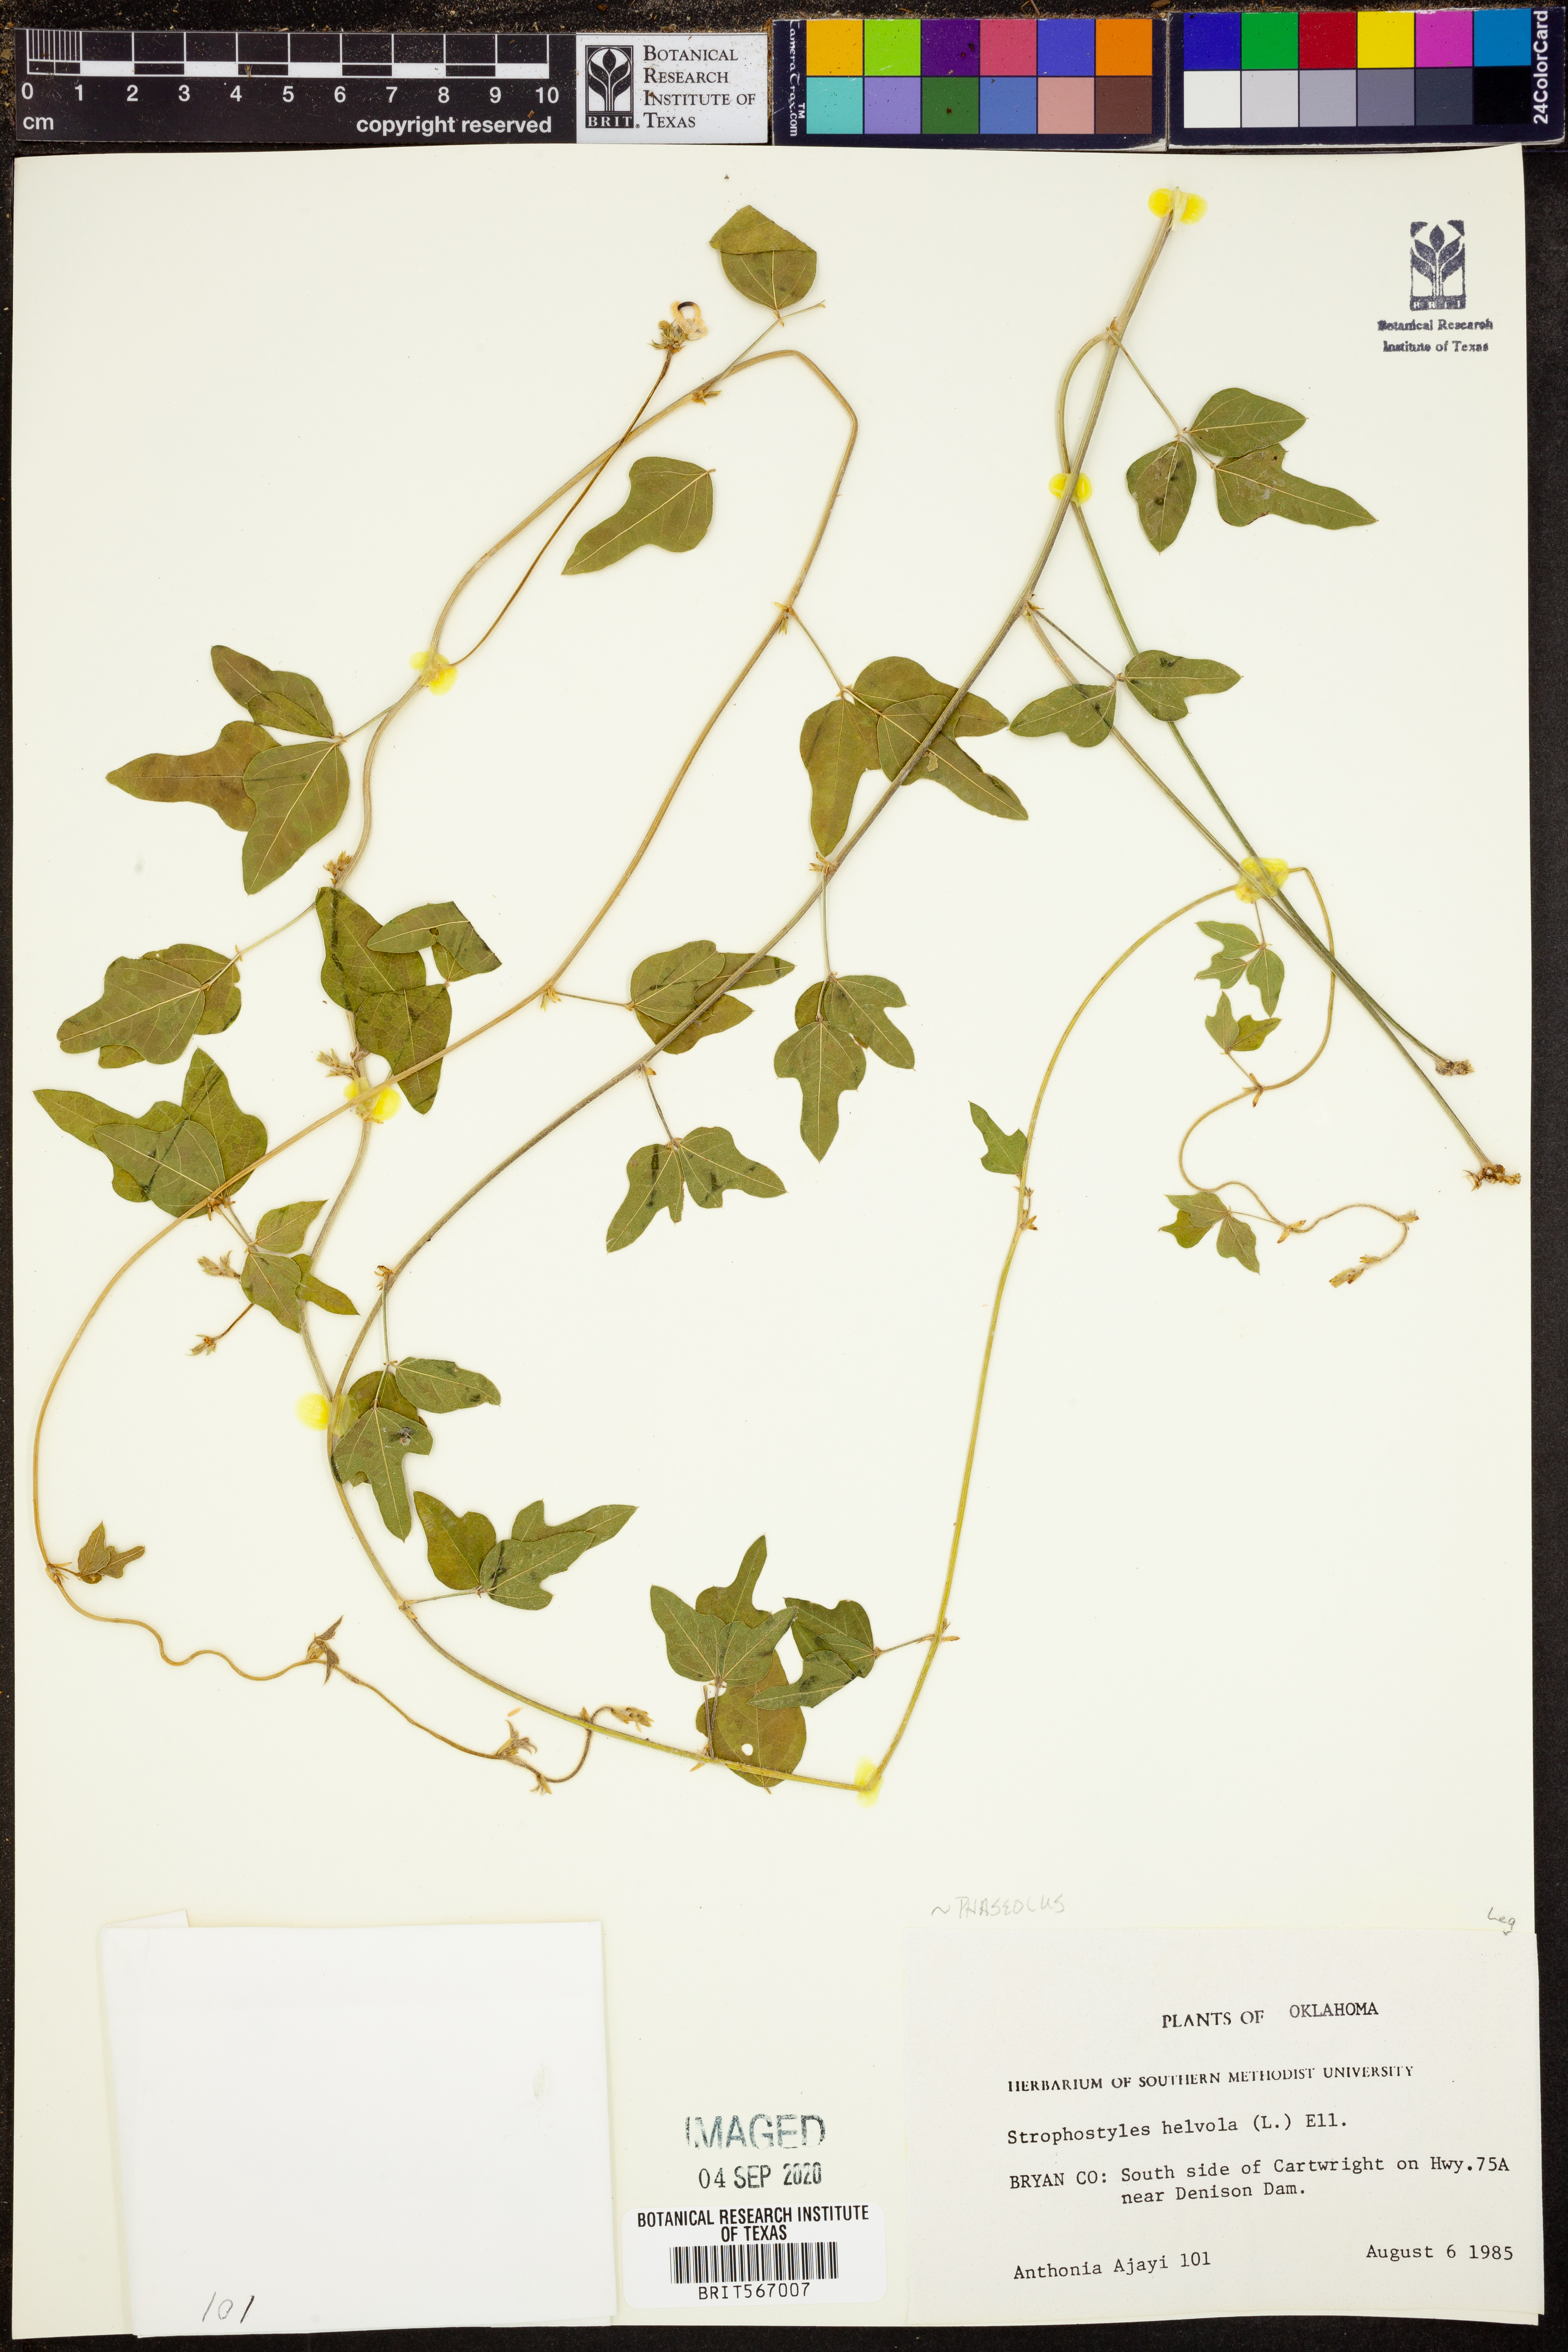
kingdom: Plantae
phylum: Tracheophyta
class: Magnoliopsida
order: Fabales
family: Fabaceae
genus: Strophostyles
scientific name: Strophostyles helvola
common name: Trailing wild bean
